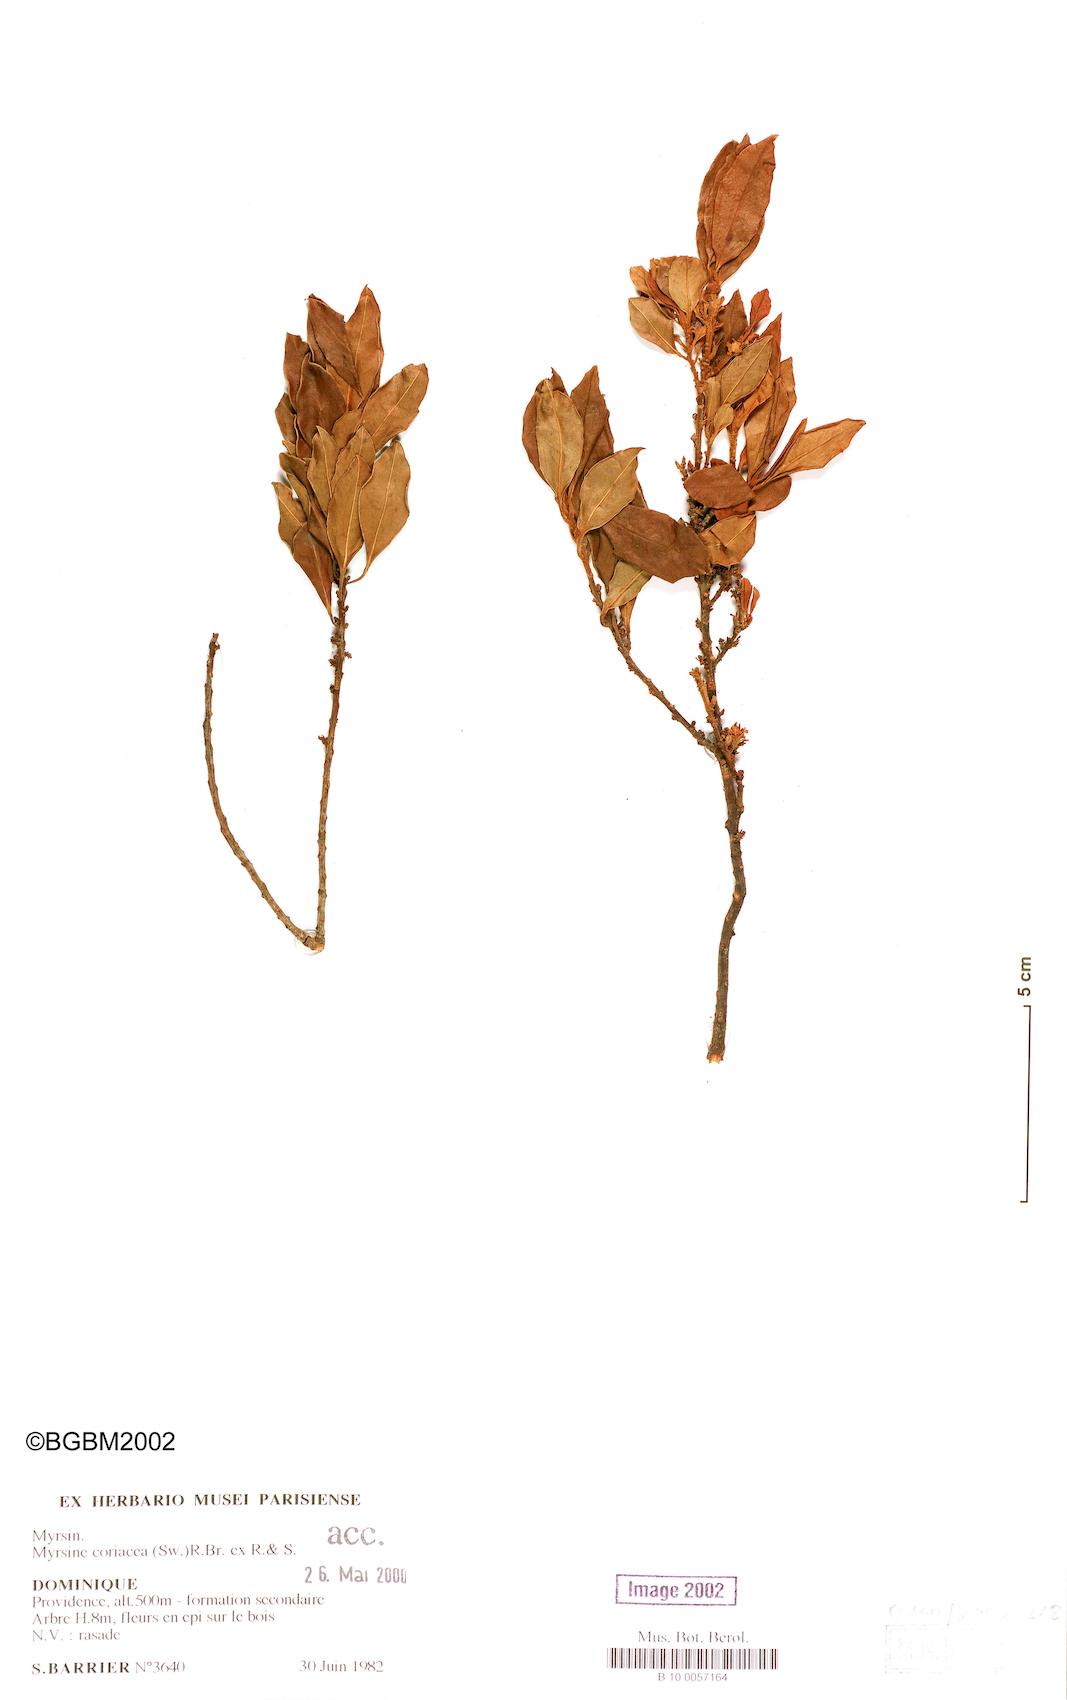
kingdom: Plantae
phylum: Tracheophyta
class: Magnoliopsida
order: Ericales
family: Primulaceae
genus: Myrsine
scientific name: Myrsine coriacea
